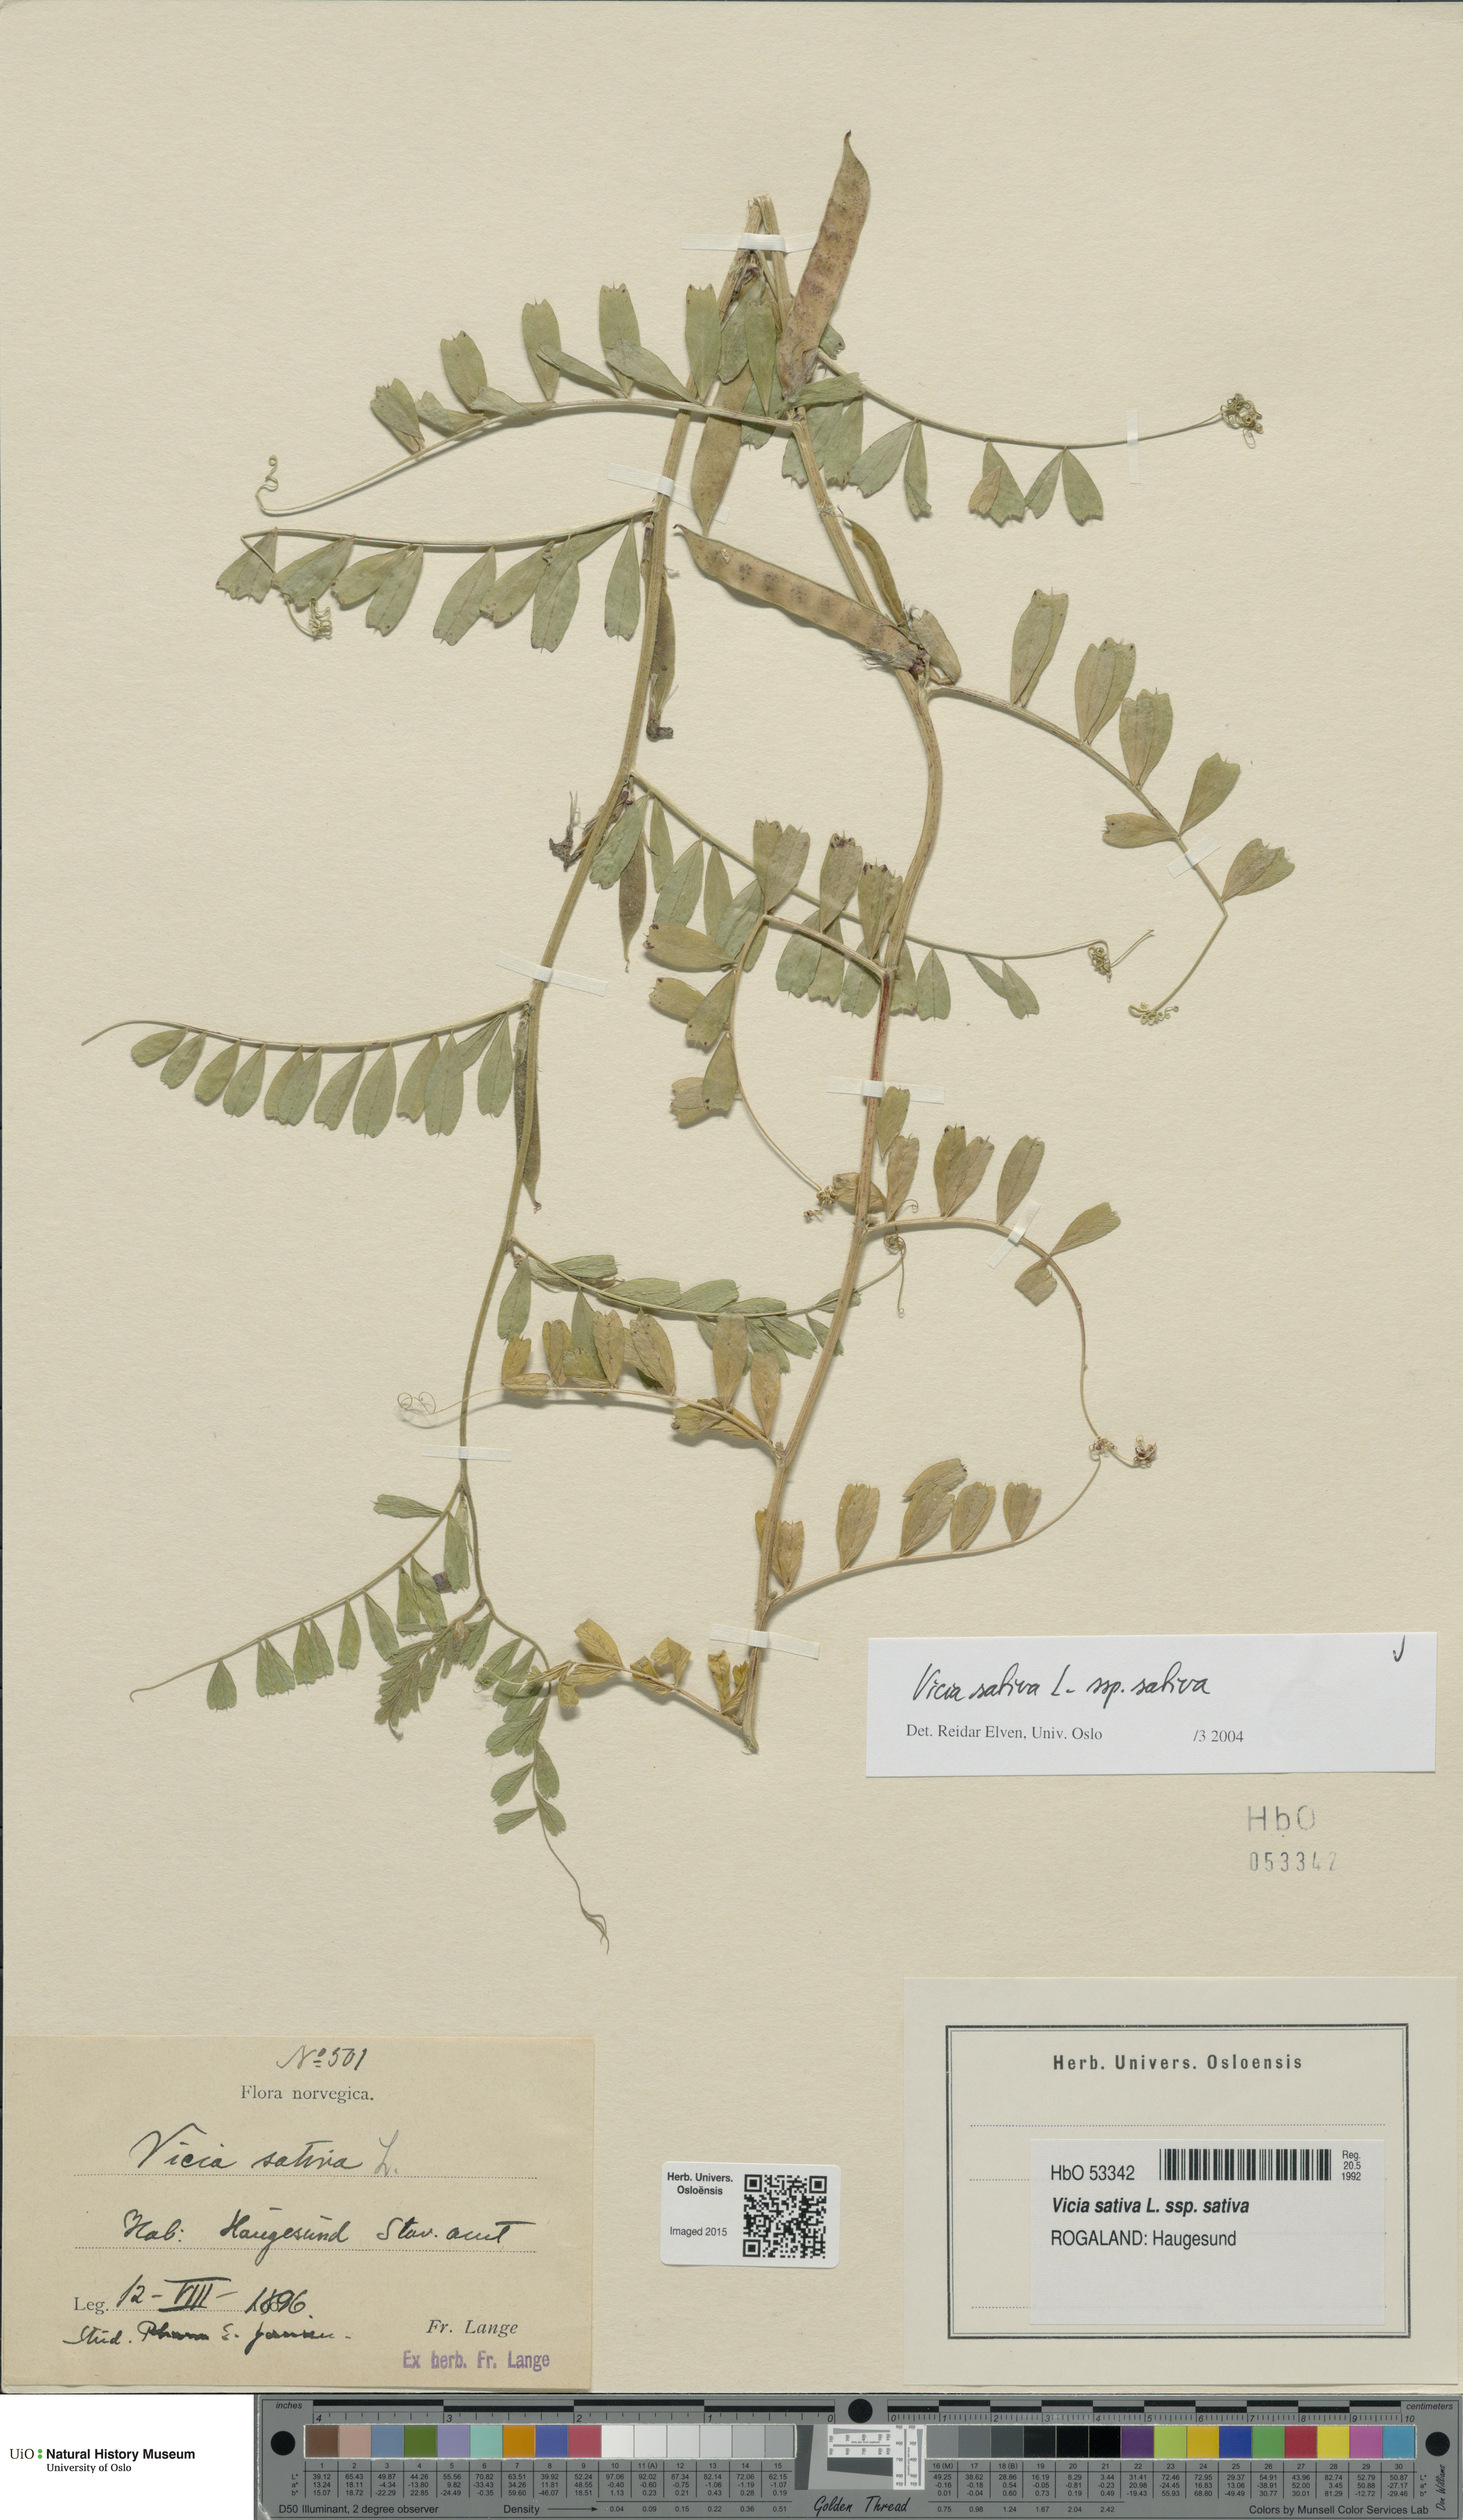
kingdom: Plantae
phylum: Tracheophyta
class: Magnoliopsida
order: Fabales
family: Fabaceae
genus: Vicia
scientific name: Vicia sativa
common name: Garden vetch
